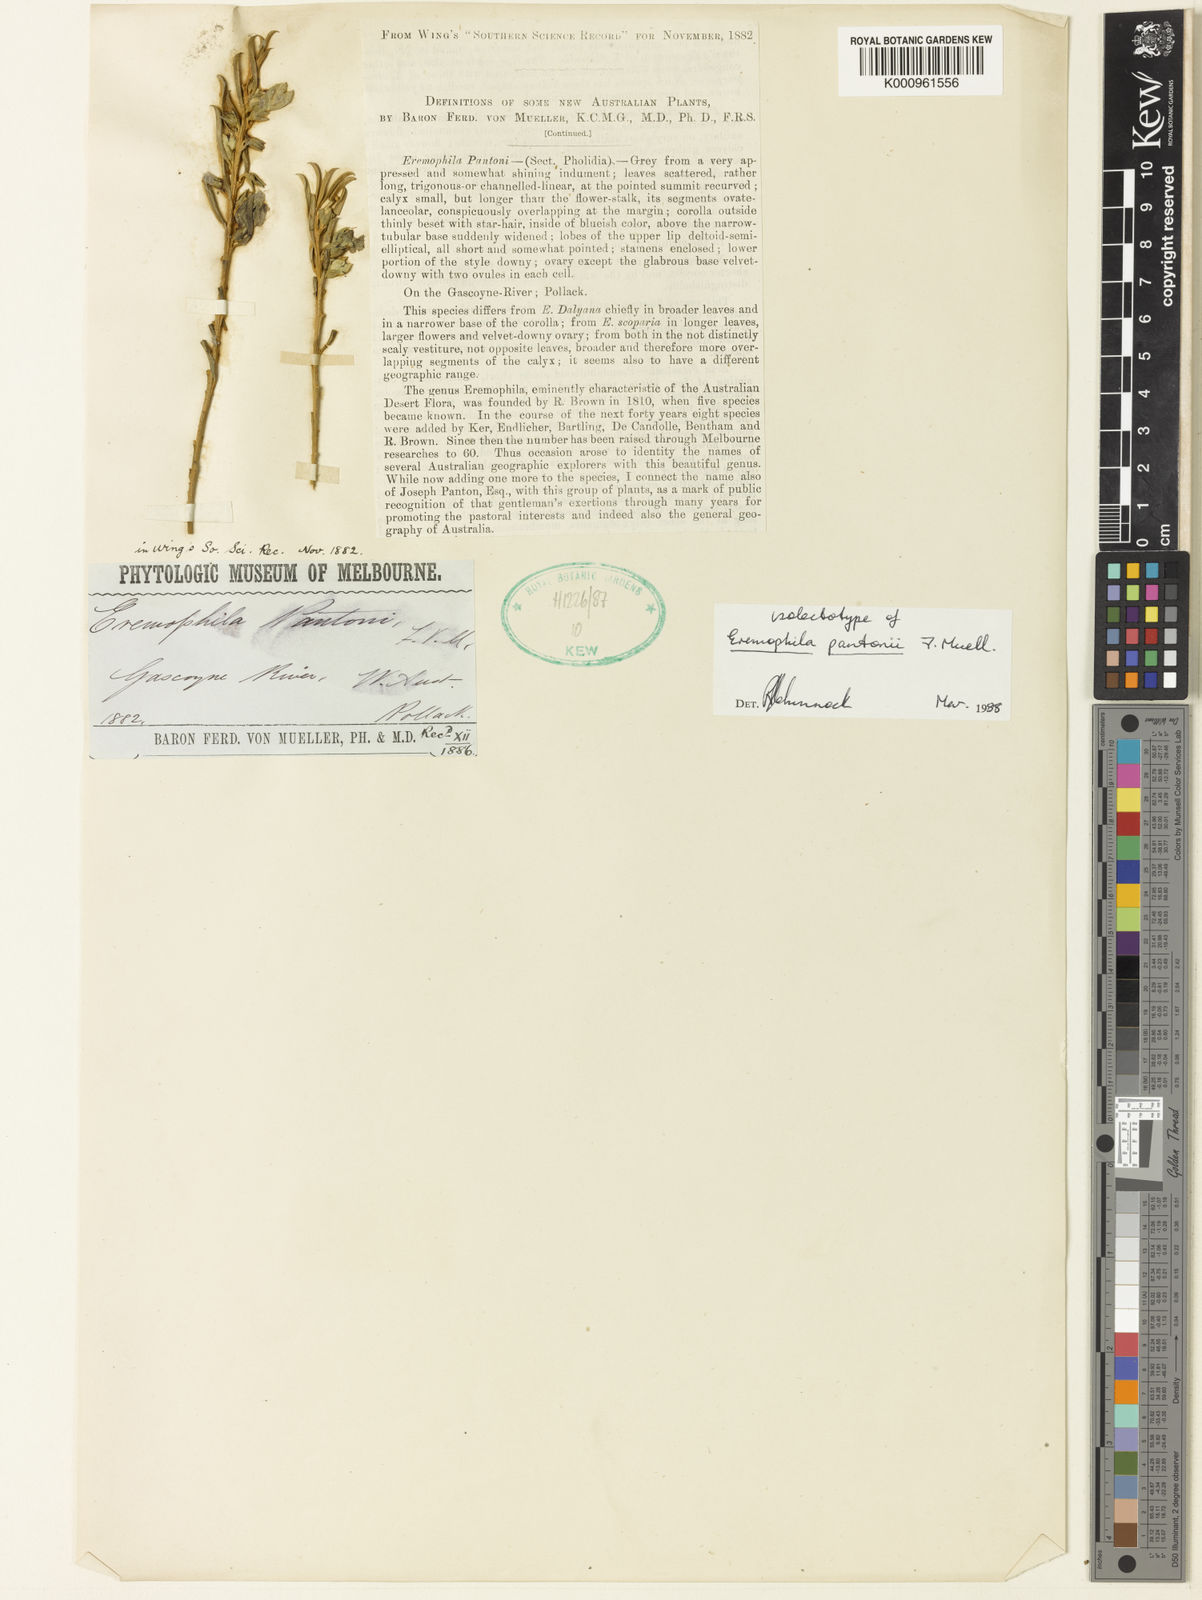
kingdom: Plantae
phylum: Tracheophyta
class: Magnoliopsida
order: Lamiales
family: Scrophulariaceae
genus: Eremophila
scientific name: Eremophila pantonii
